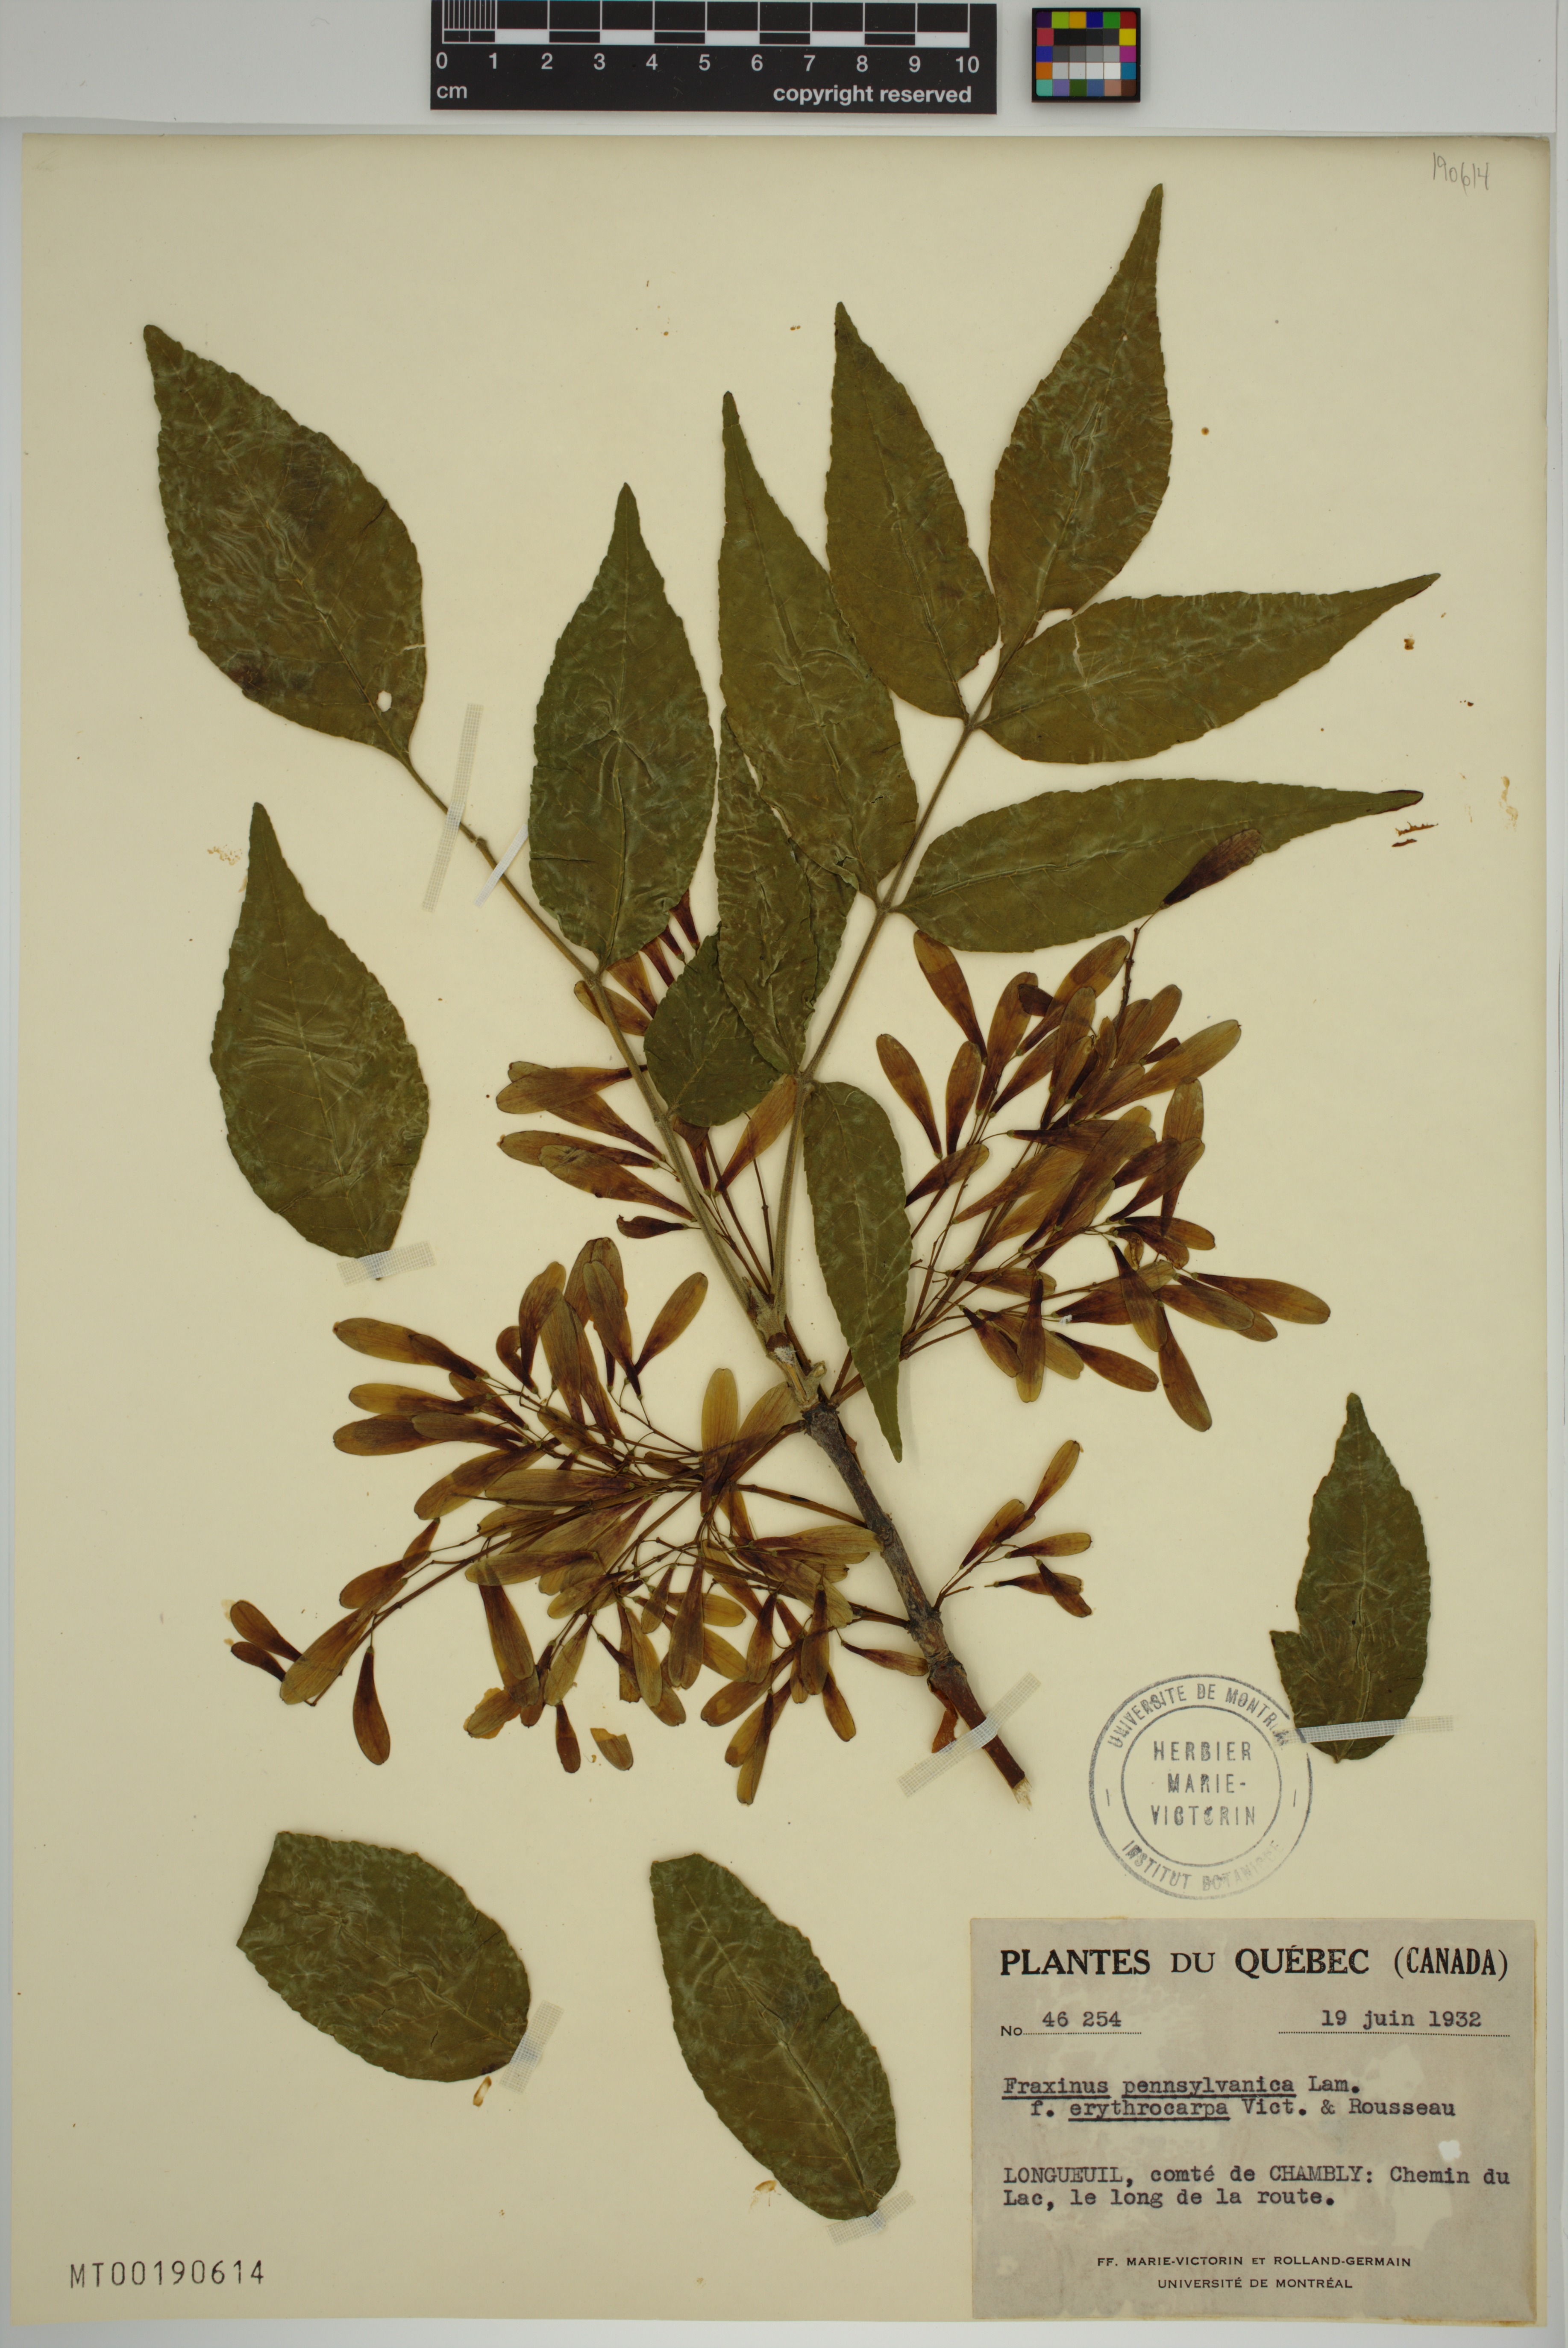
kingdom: Plantae
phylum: Tracheophyta
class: Magnoliopsida
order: Lamiales
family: Oleaceae
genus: Fraxinus
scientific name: Fraxinus pennsylvanica
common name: Green ash
